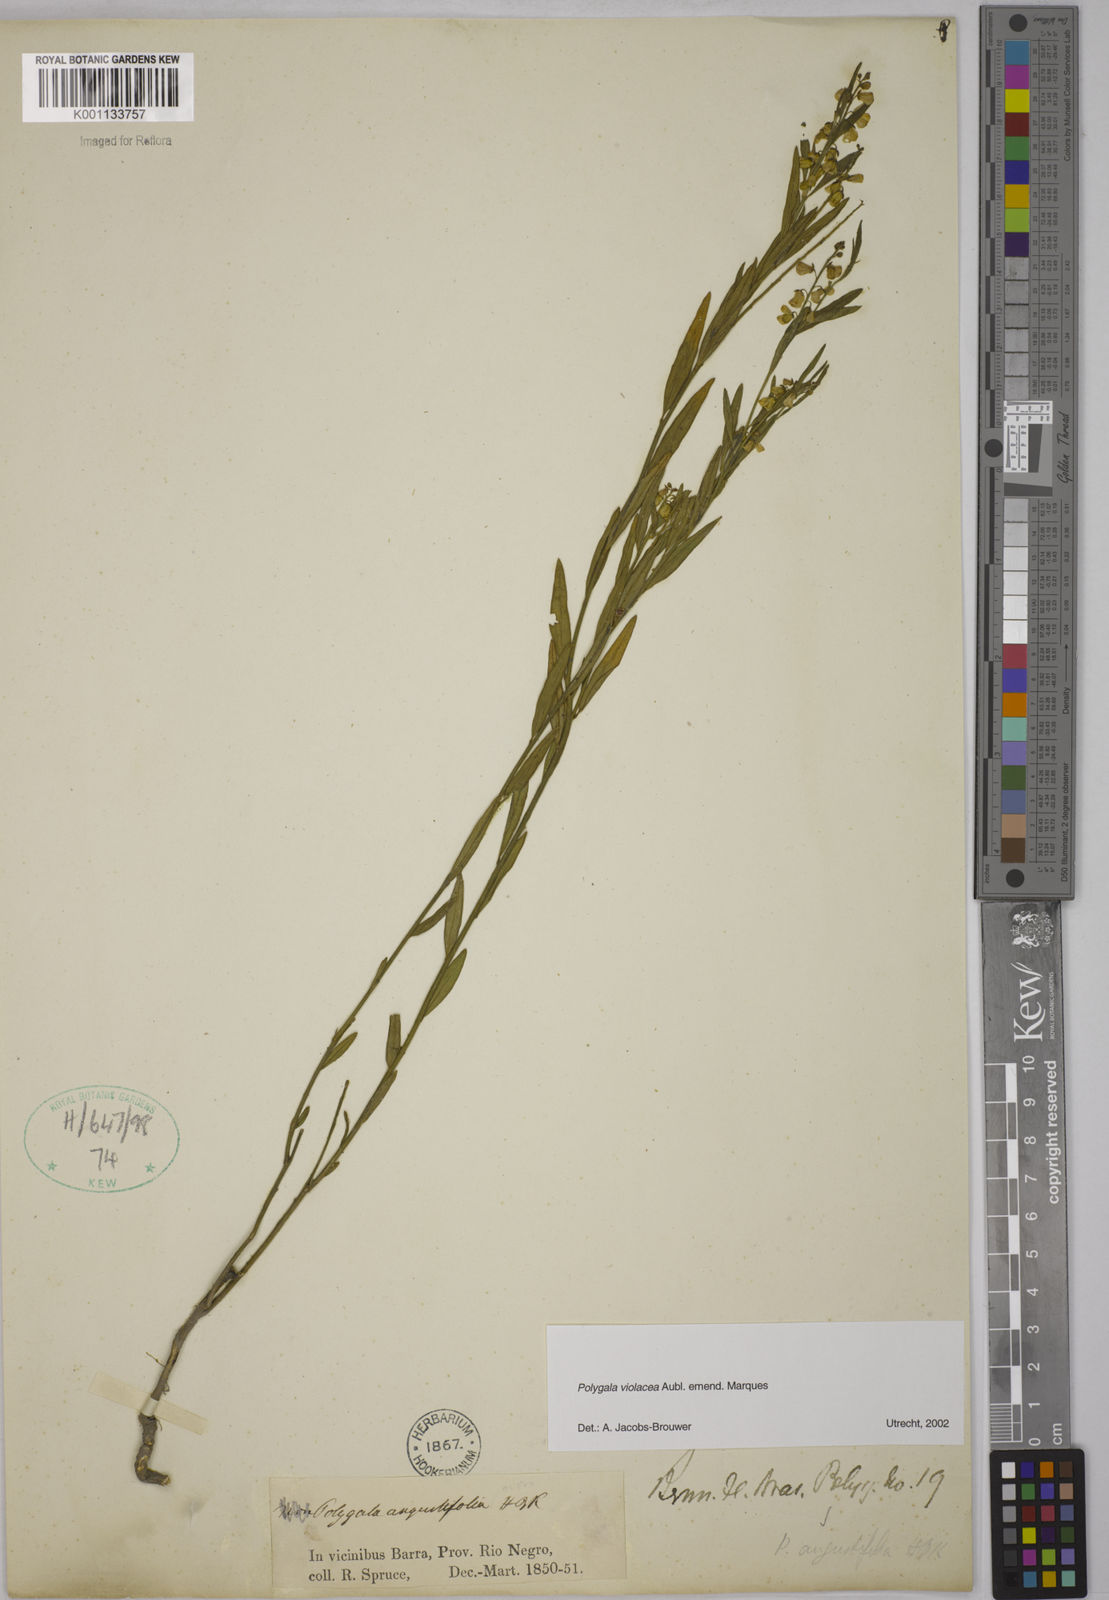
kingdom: Plantae
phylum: Tracheophyta
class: Magnoliopsida
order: Fabales
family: Polygalaceae
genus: Asemeia
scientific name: Asemeia monticola
